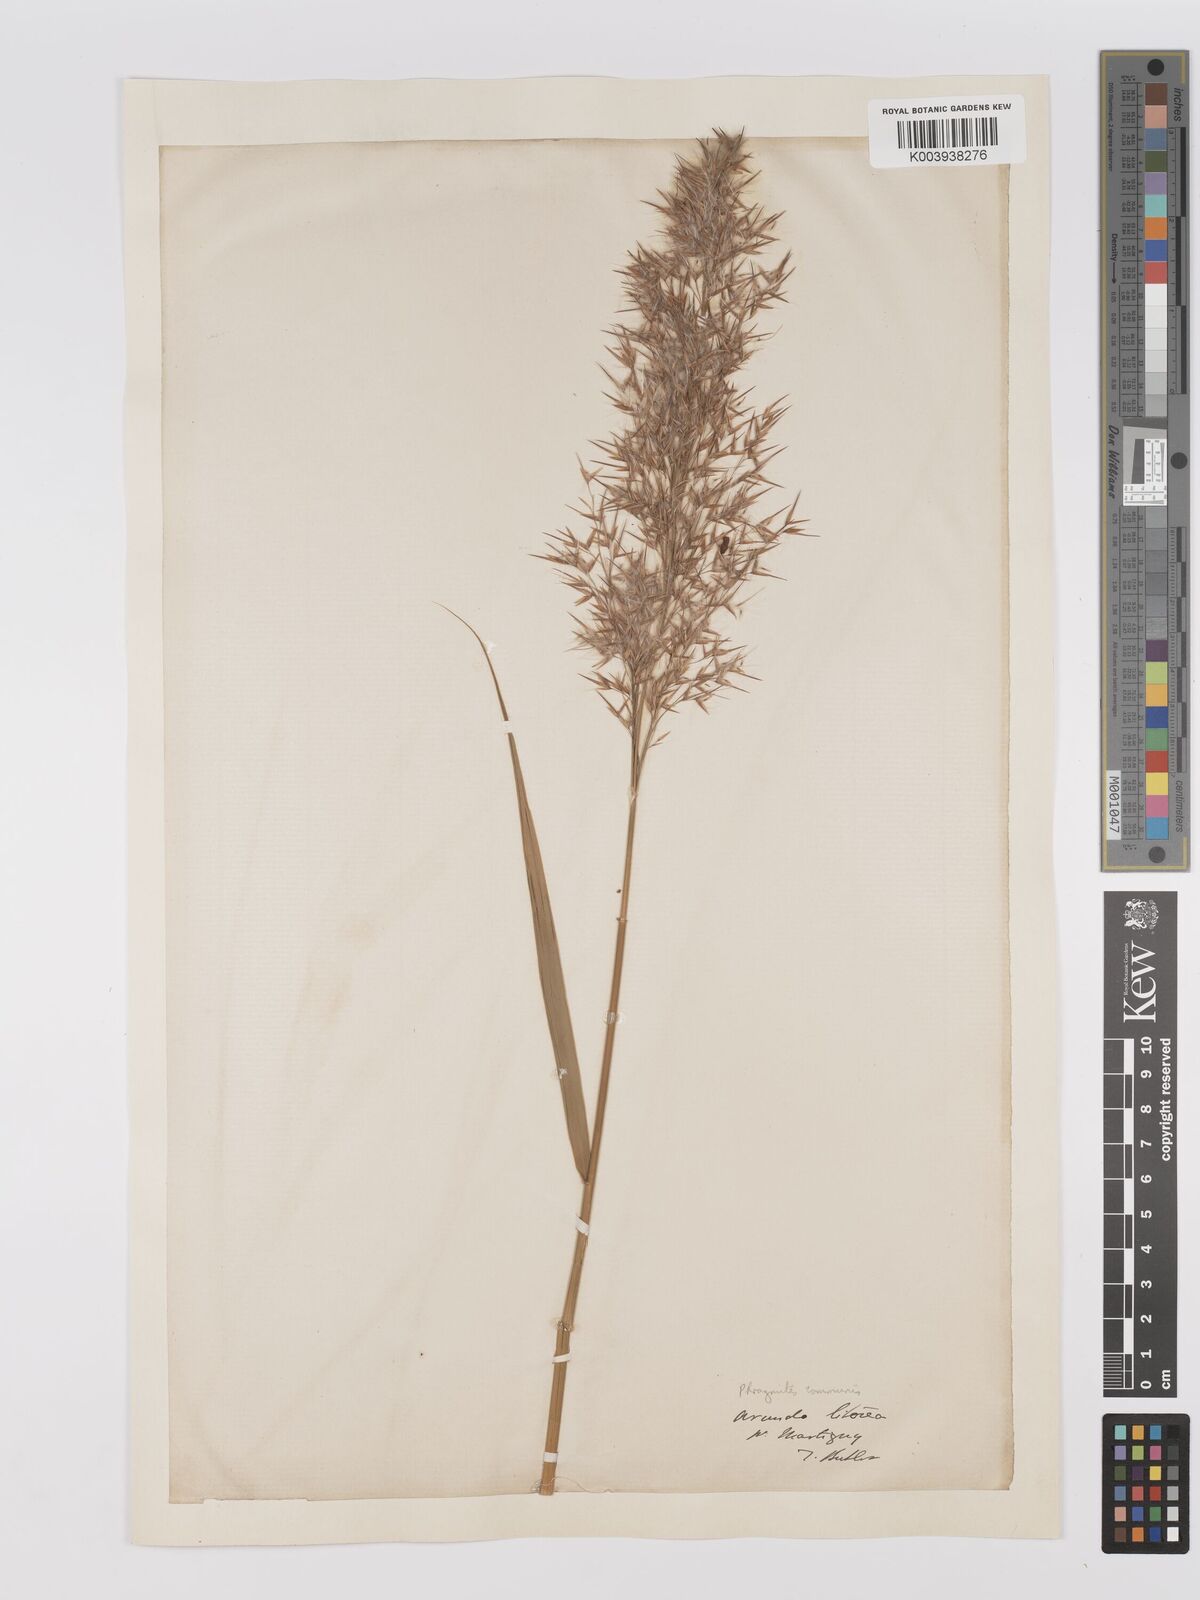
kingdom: Plantae
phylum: Tracheophyta
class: Liliopsida
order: Poales
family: Poaceae
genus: Phragmites
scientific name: Phragmites australis
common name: Common reed
